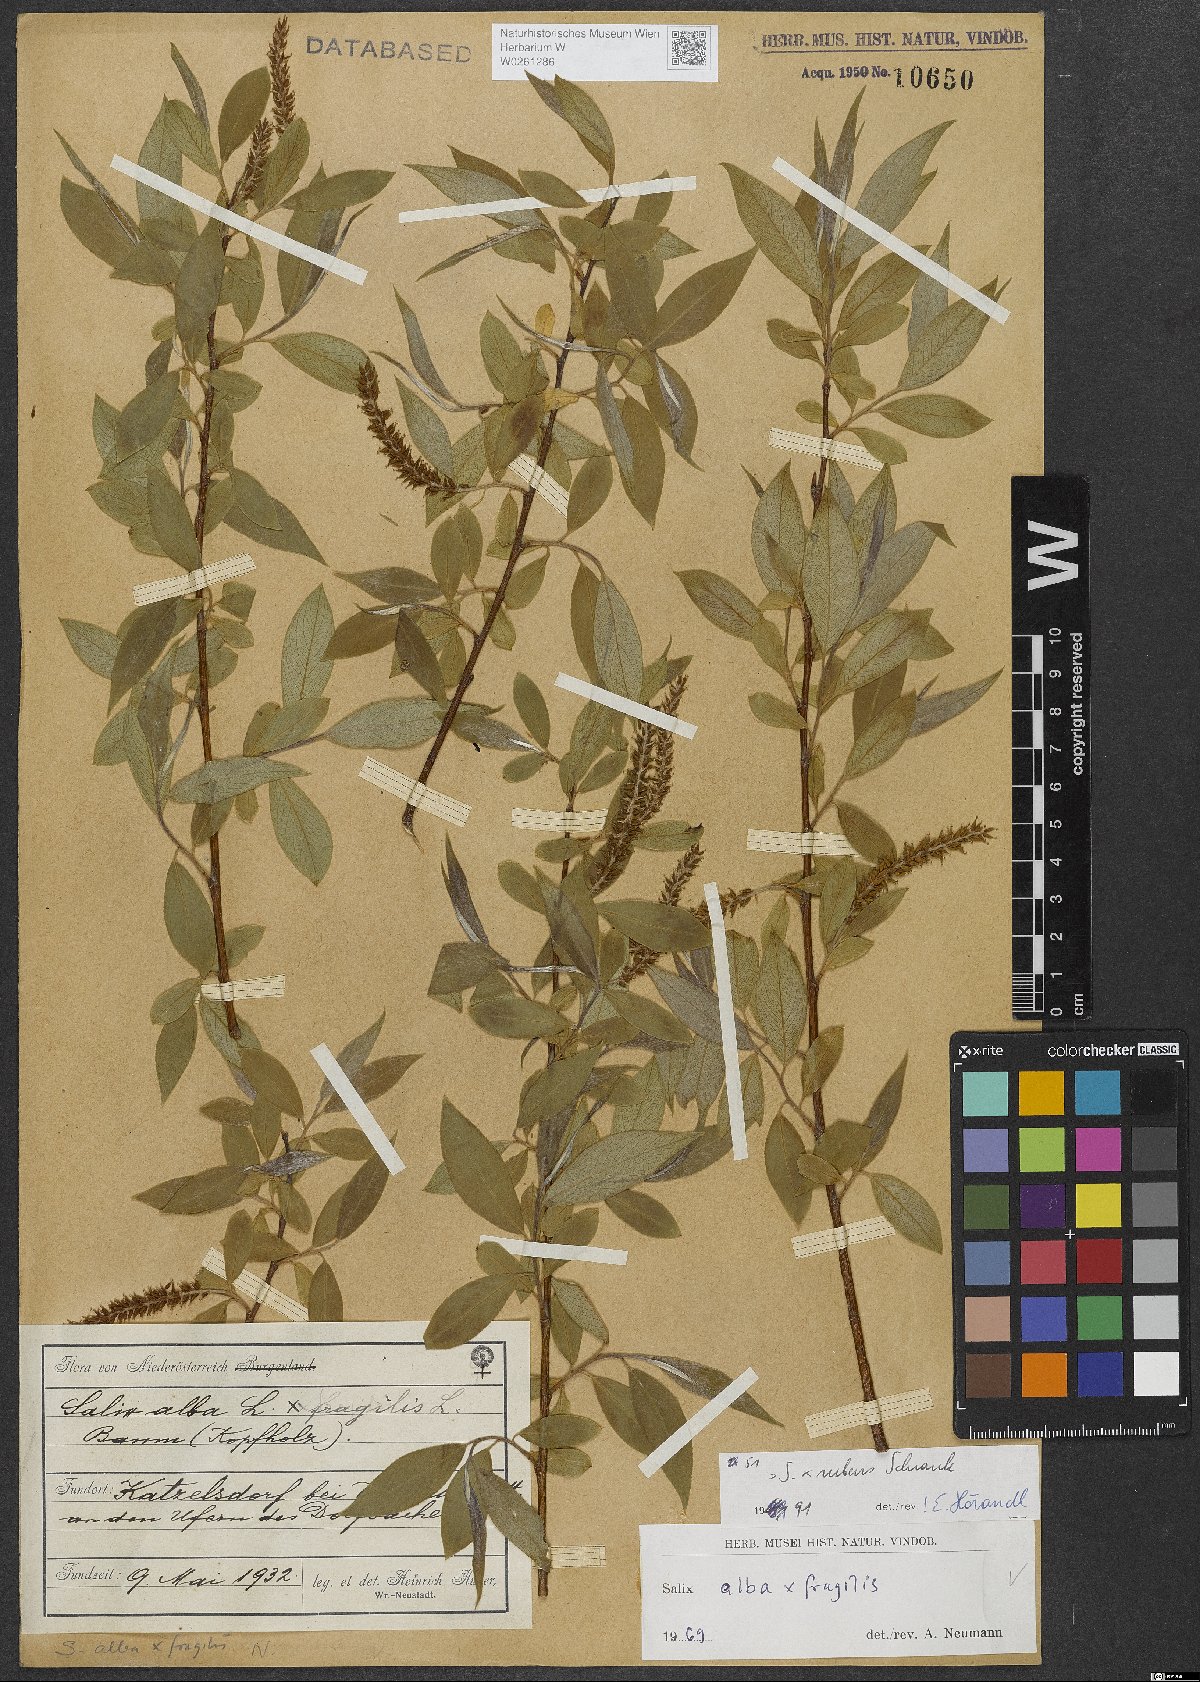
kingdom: Plantae
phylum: Tracheophyta
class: Magnoliopsida
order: Malpighiales
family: Salicaceae
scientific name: Salicaceae
